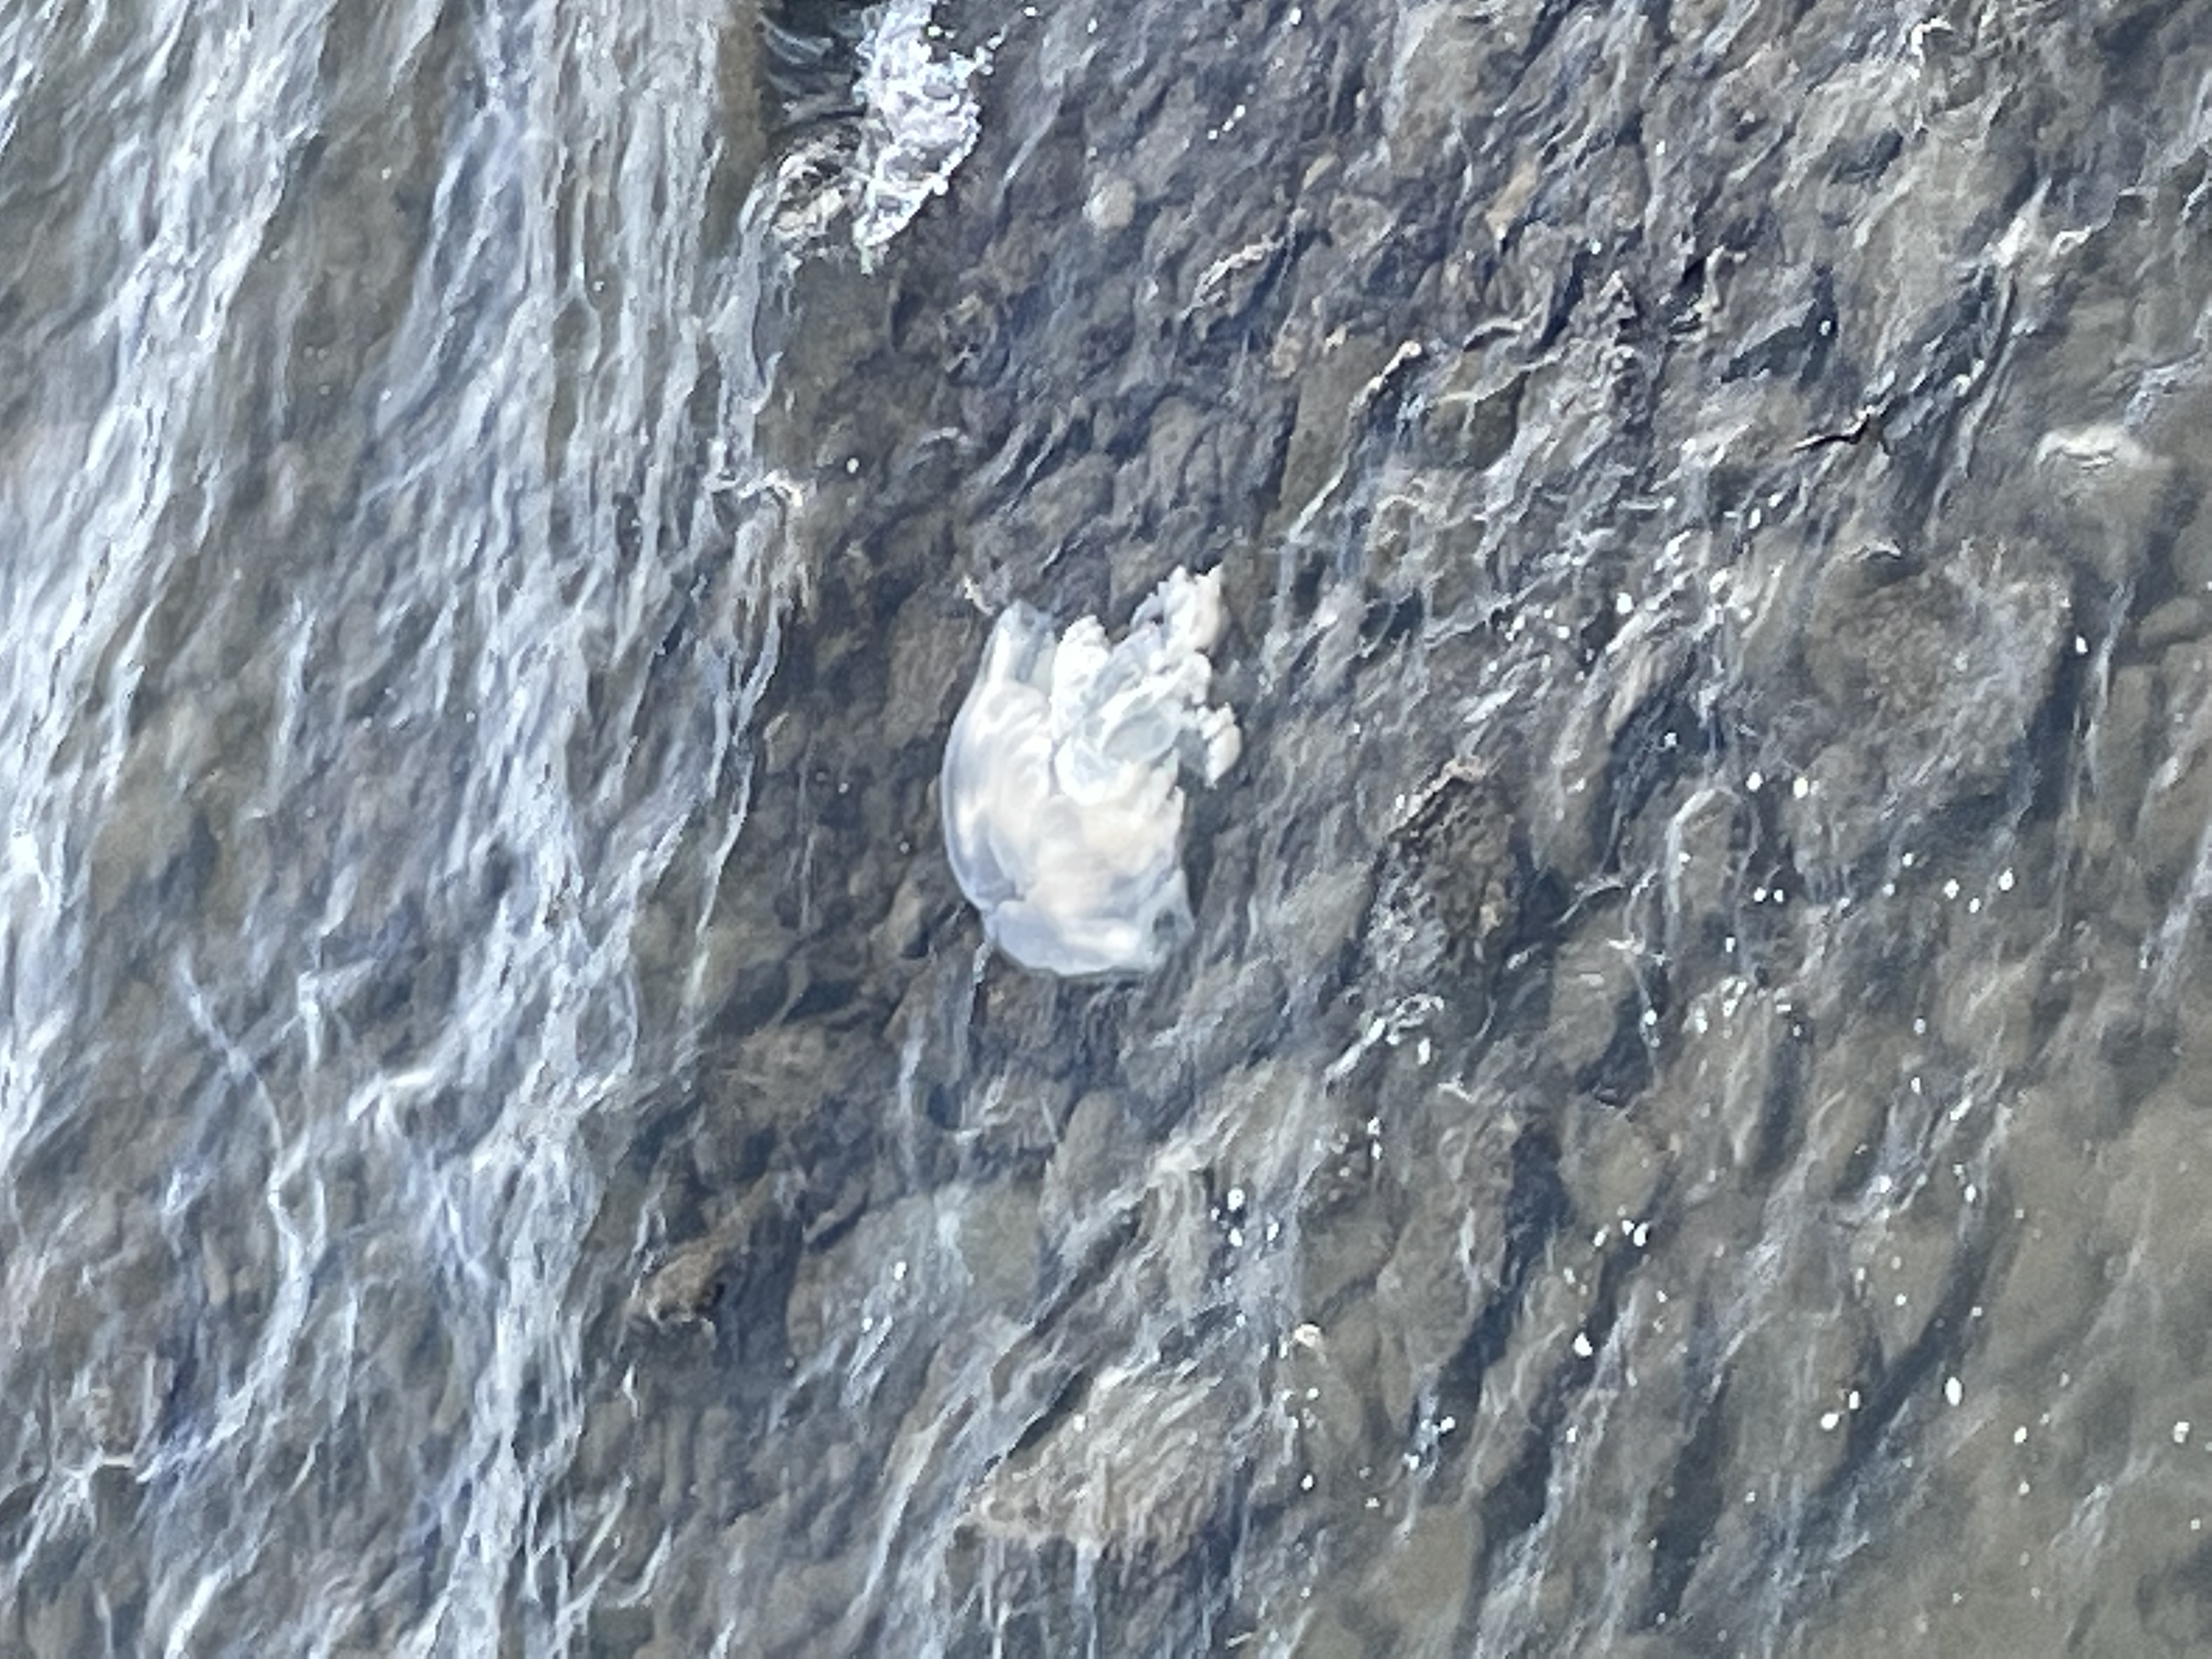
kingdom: Animalia
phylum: Cnidaria
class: Scyphozoa
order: Rhizostomeae
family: Rhizostomatidae
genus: Rhopilema
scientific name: Rhopilema hispidum
